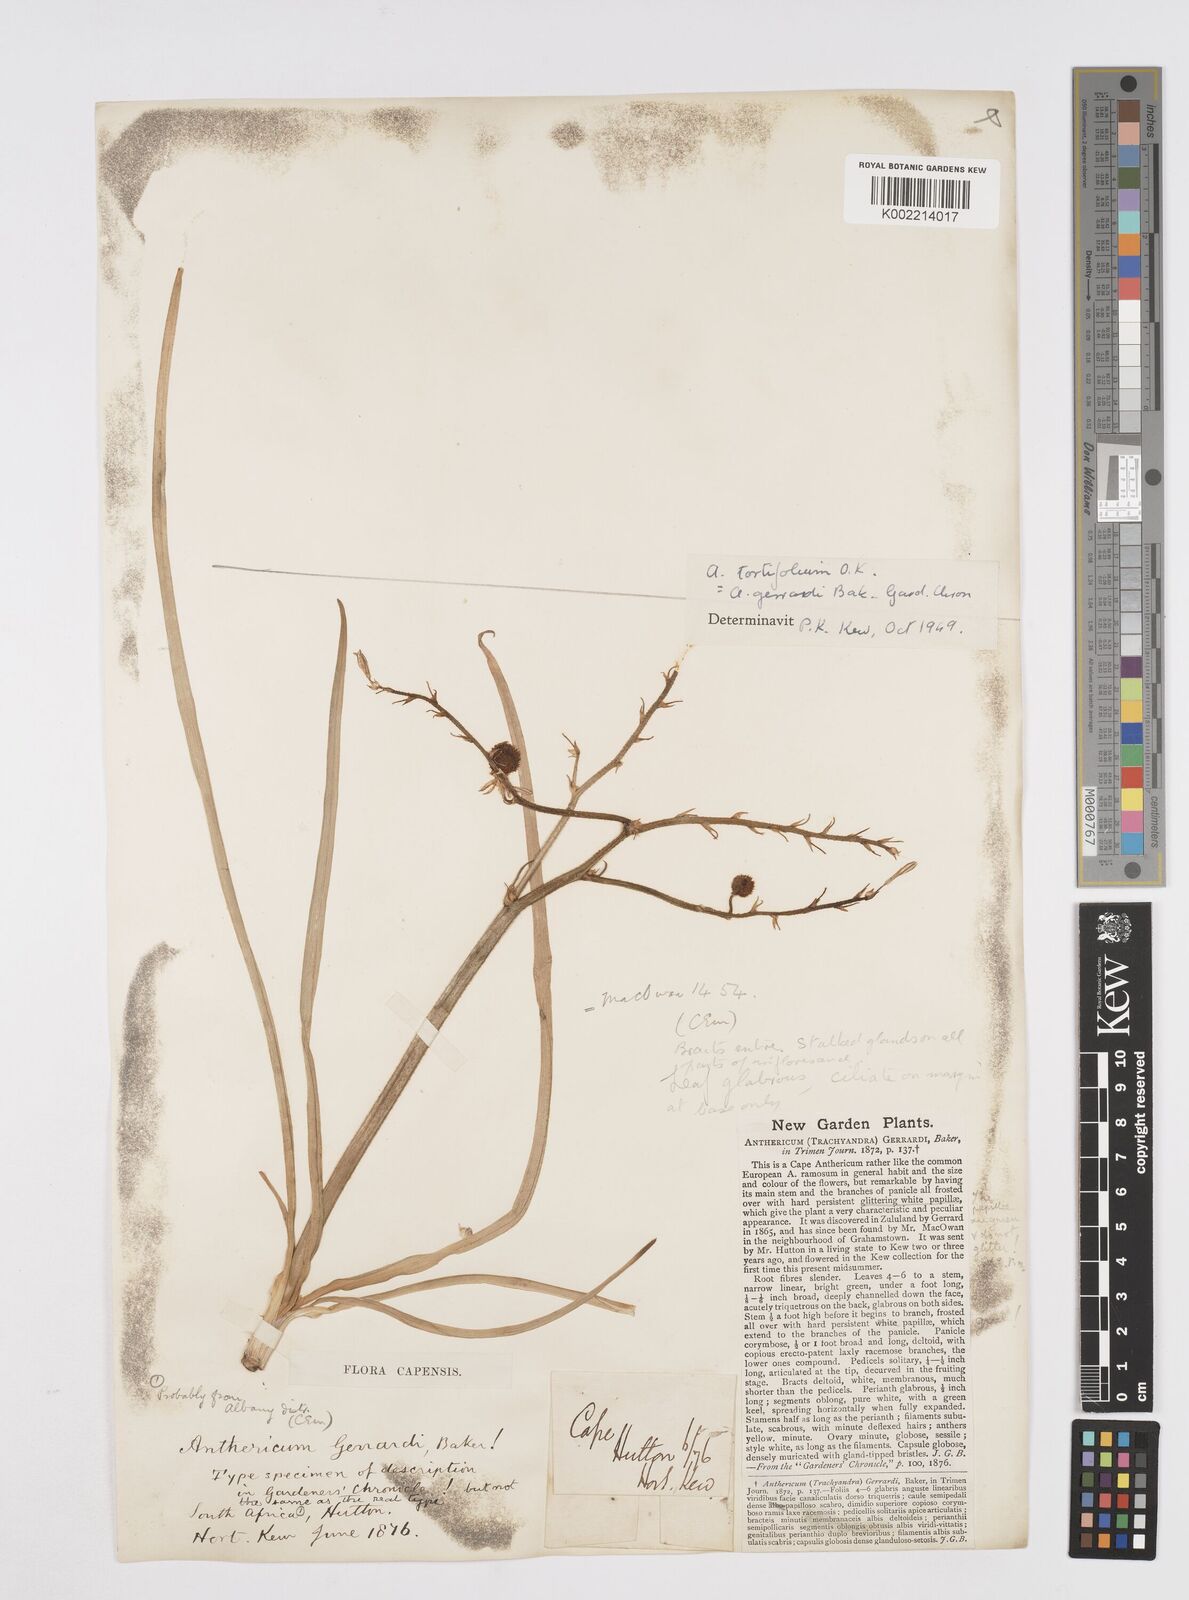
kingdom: Plantae
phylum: Tracheophyta
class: Liliopsida
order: Asparagales
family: Asphodelaceae
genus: Trachyandra
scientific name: Trachyandra gerrardii
